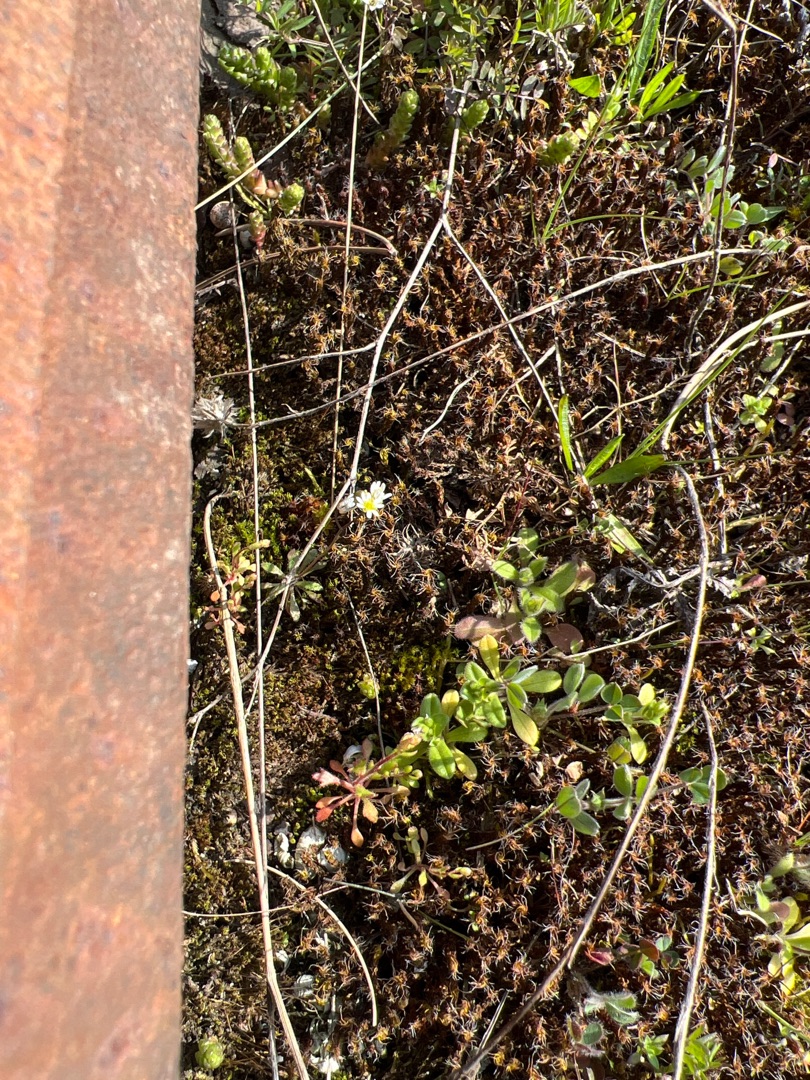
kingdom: Plantae
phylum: Tracheophyta
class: Magnoliopsida
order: Brassicales
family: Brassicaceae
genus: Draba
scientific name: Draba verna
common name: Vår-gæslingeblomst
